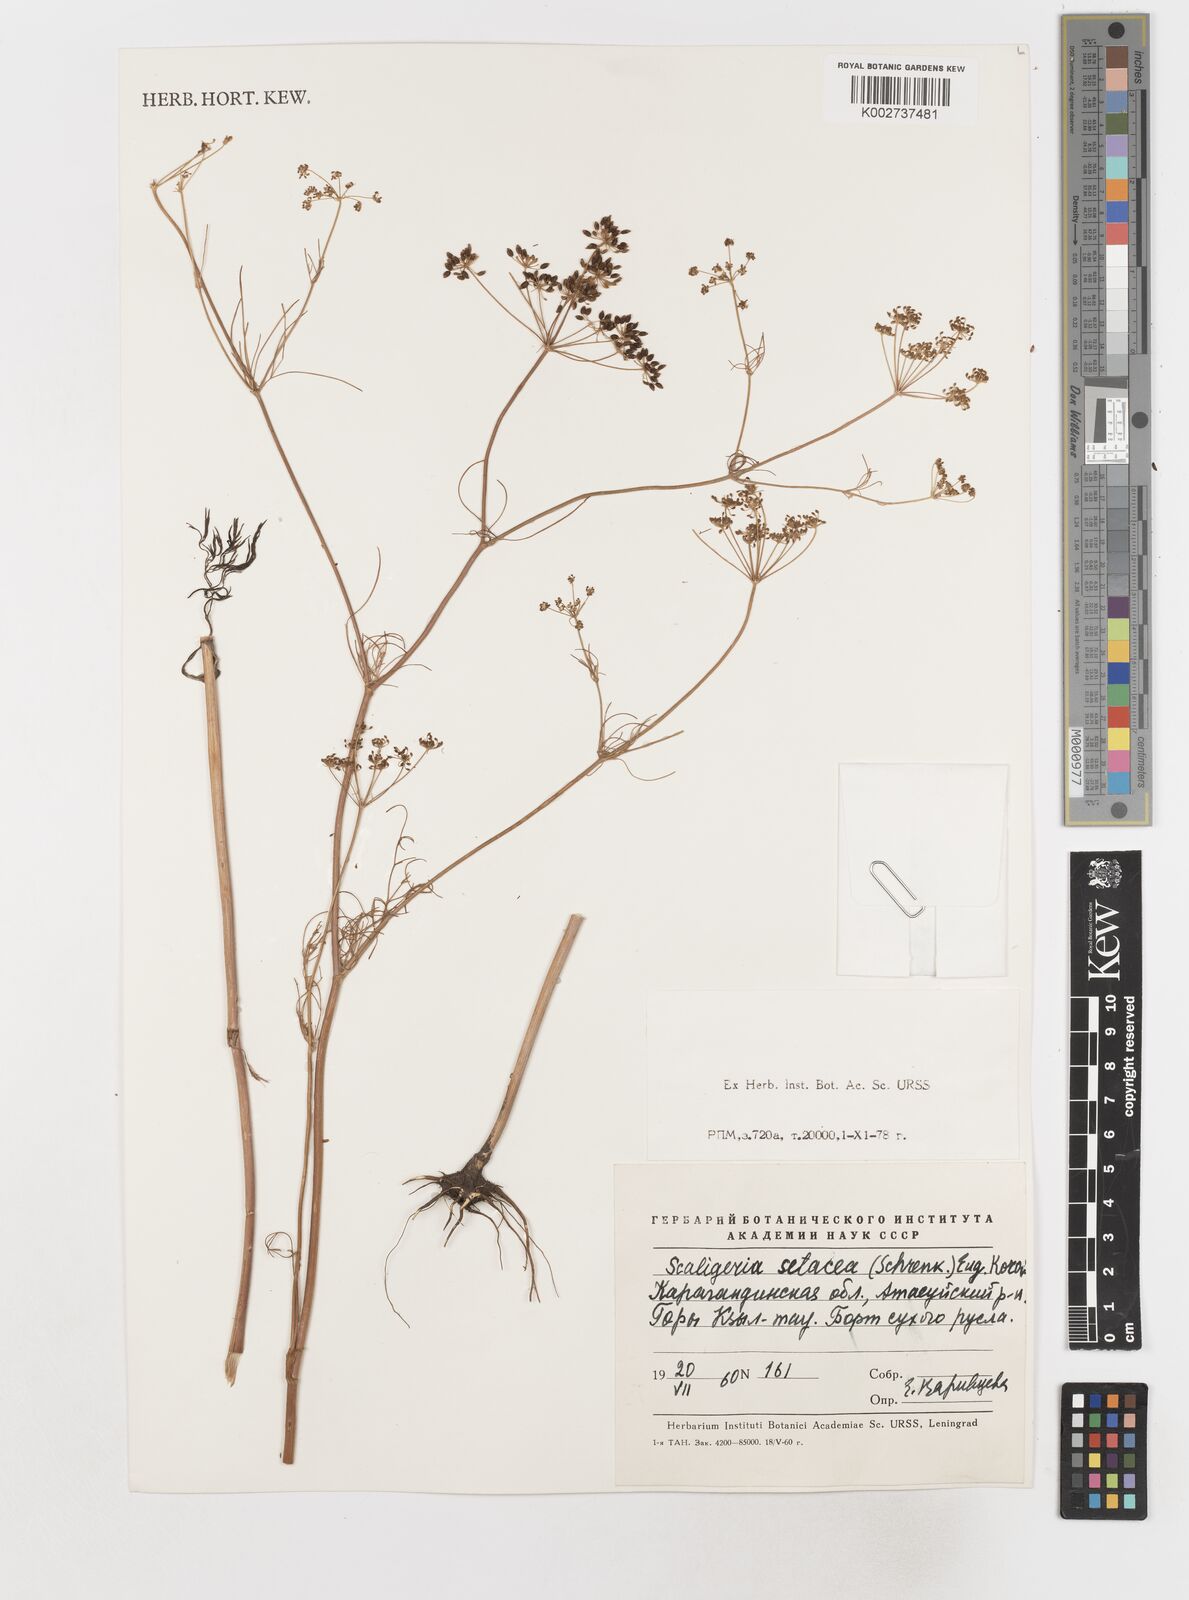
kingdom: Plantae
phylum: Tracheophyta
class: Magnoliopsida
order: Apiales
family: Apiaceae
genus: Scaligeria
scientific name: Scaligeria allioides
